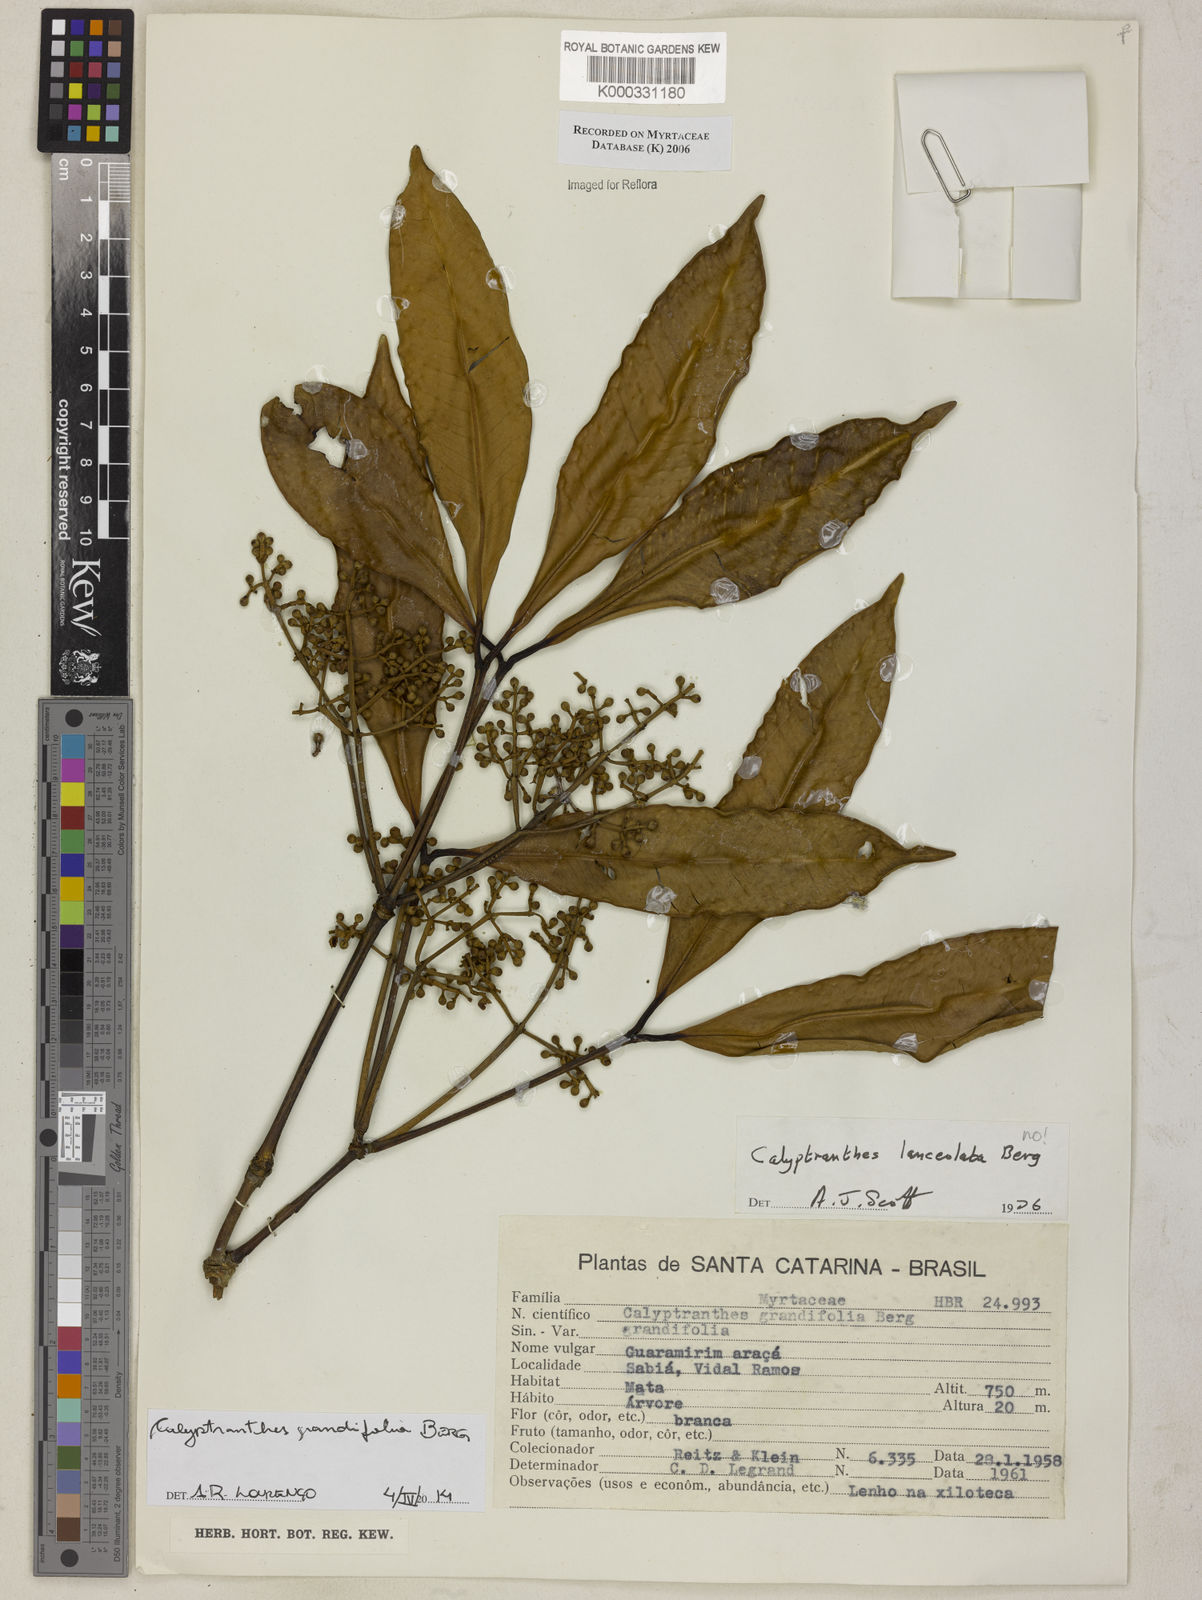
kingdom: Plantae
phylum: Tracheophyta
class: Magnoliopsida
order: Myrtales
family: Myrtaceae
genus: Myrcia
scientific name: Myrcia lonchophylla
